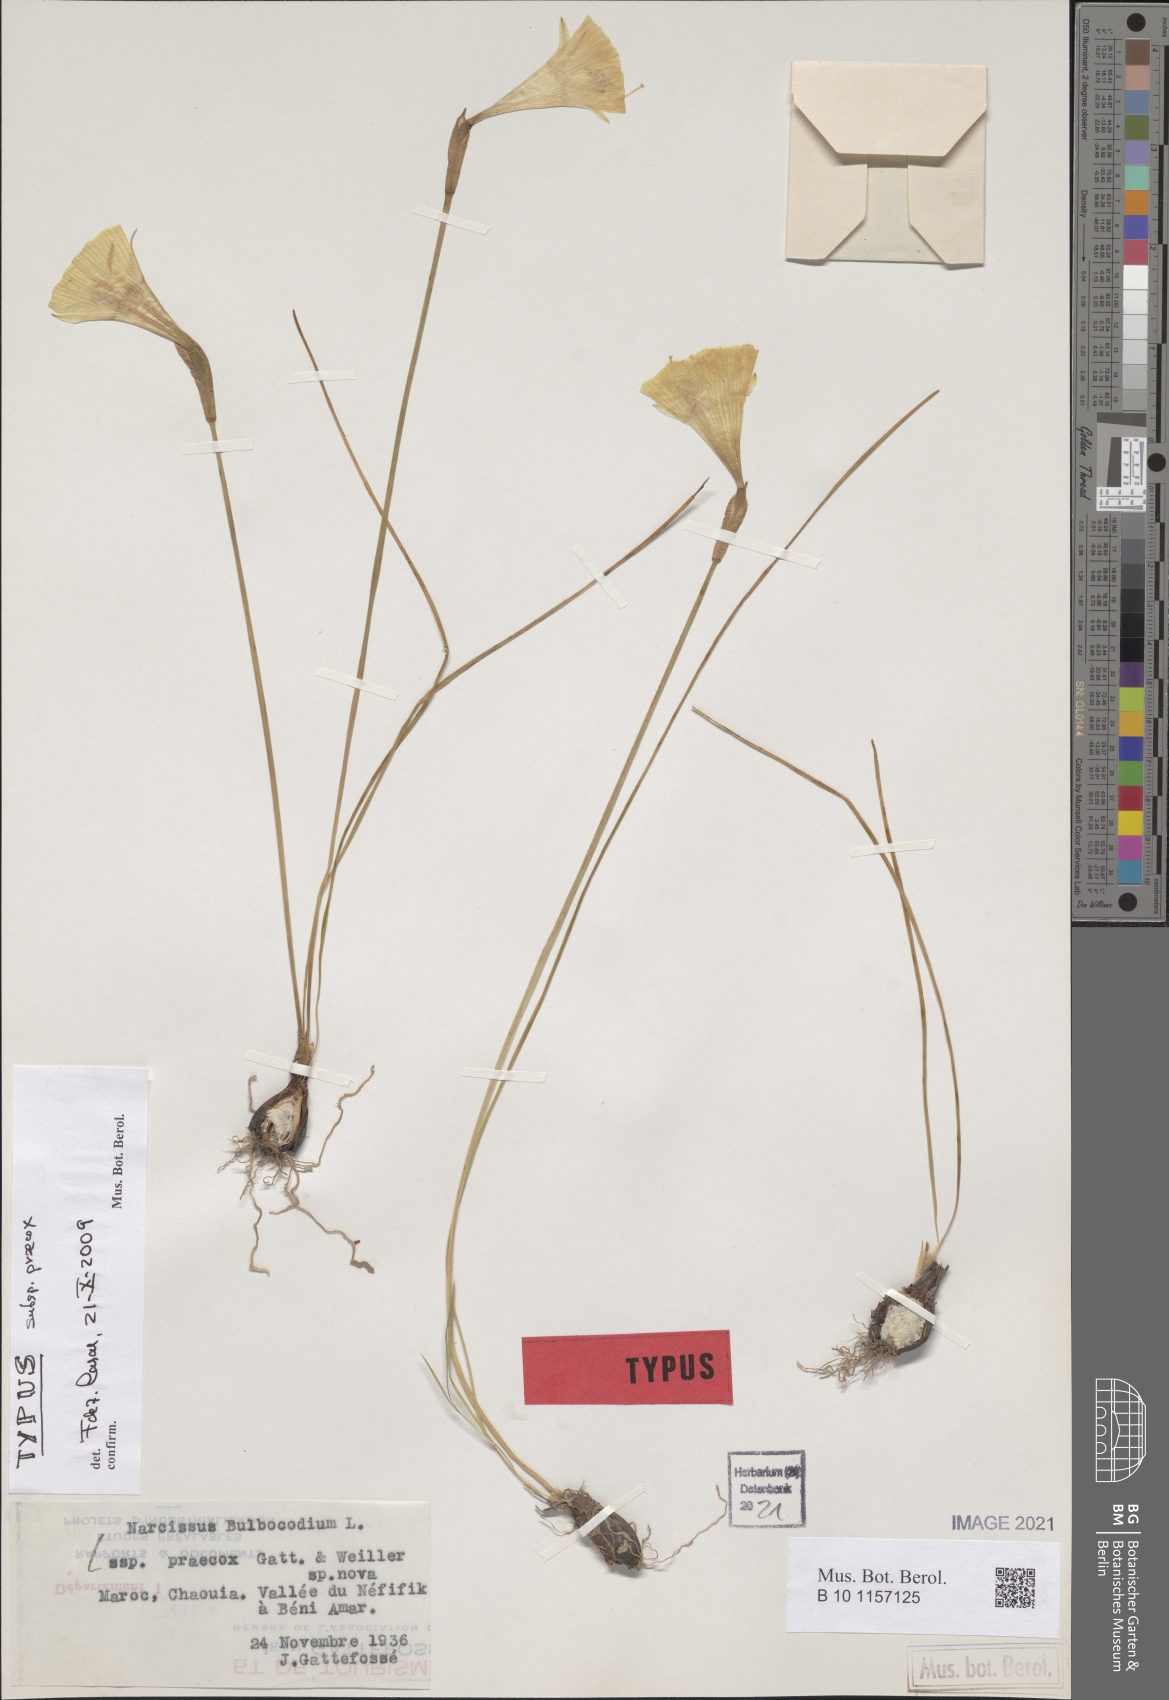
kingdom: Plantae
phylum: Tracheophyta
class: Liliopsida
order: Asparagales
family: Amaryllidaceae
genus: Narcissus
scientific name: Narcissus albicans
